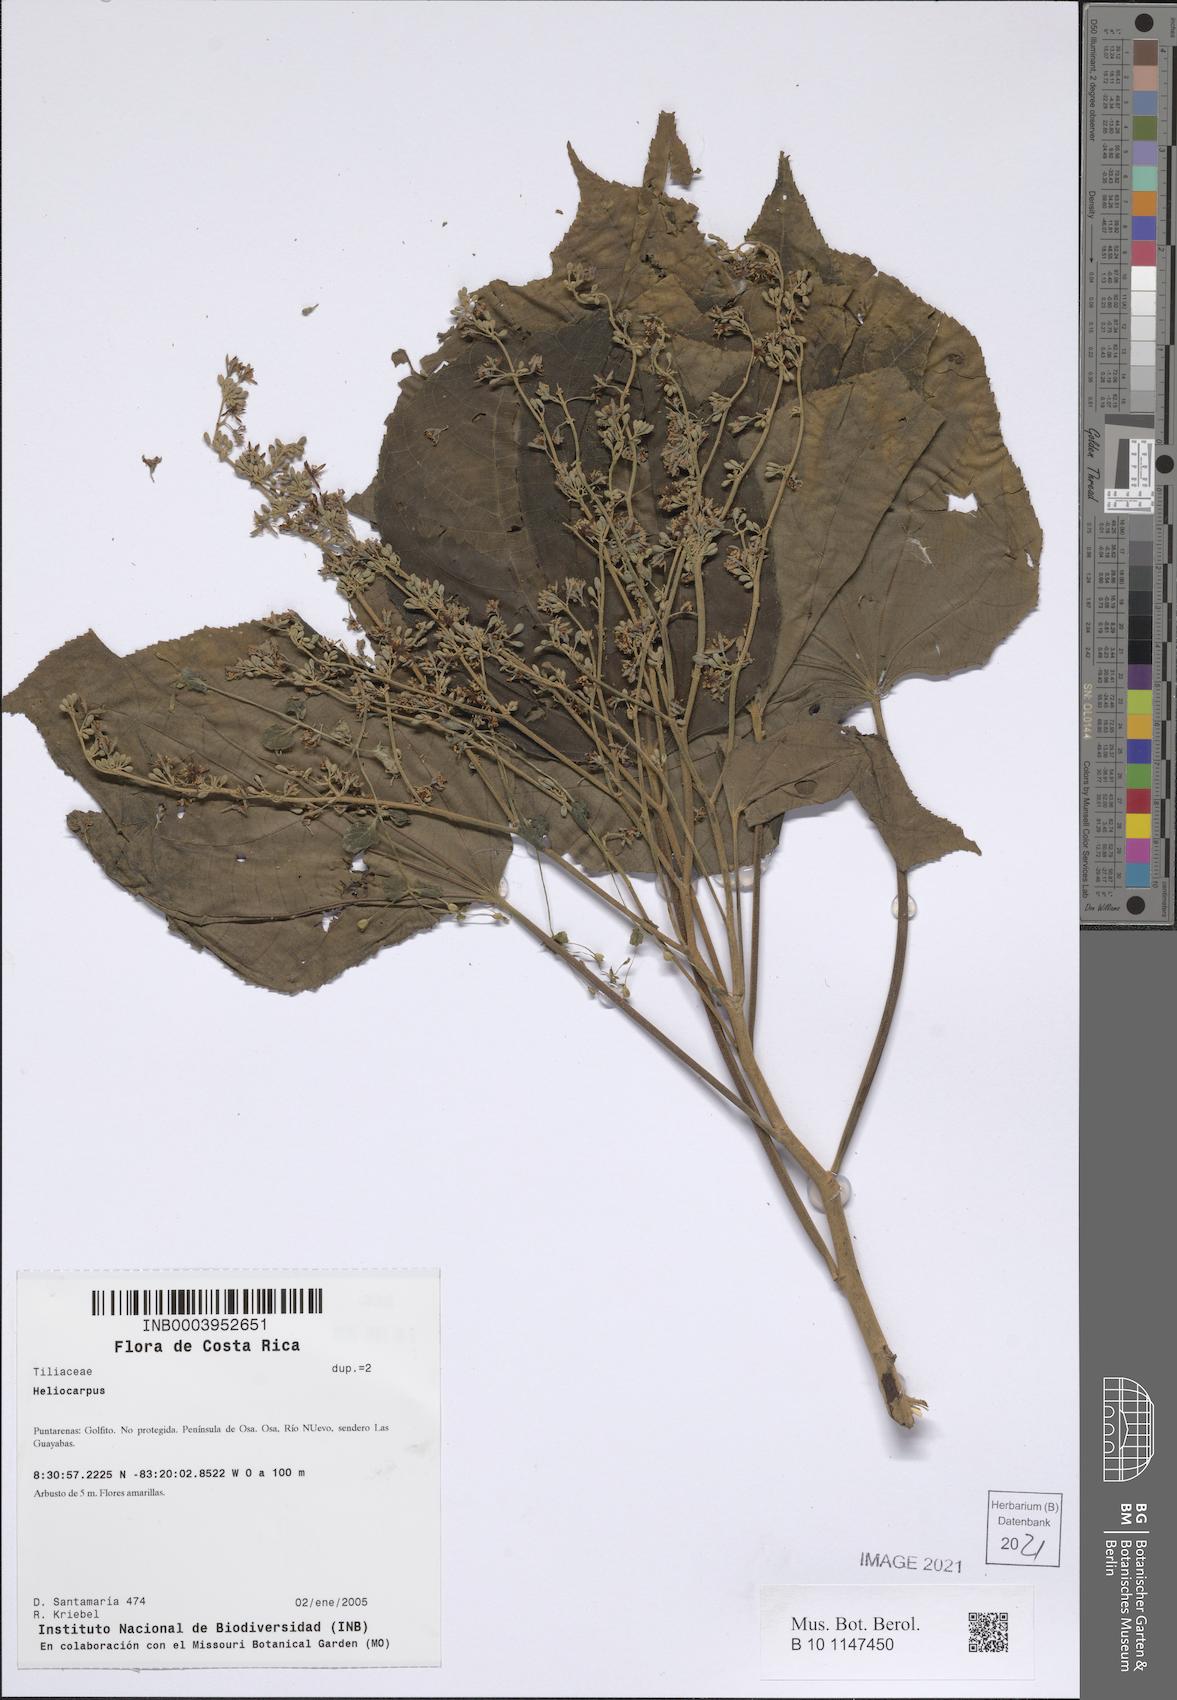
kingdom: Plantae
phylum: Tracheophyta
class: Magnoliopsida
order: Malvales
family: Malvaceae
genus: Heliocarpus
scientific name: Heliocarpus
